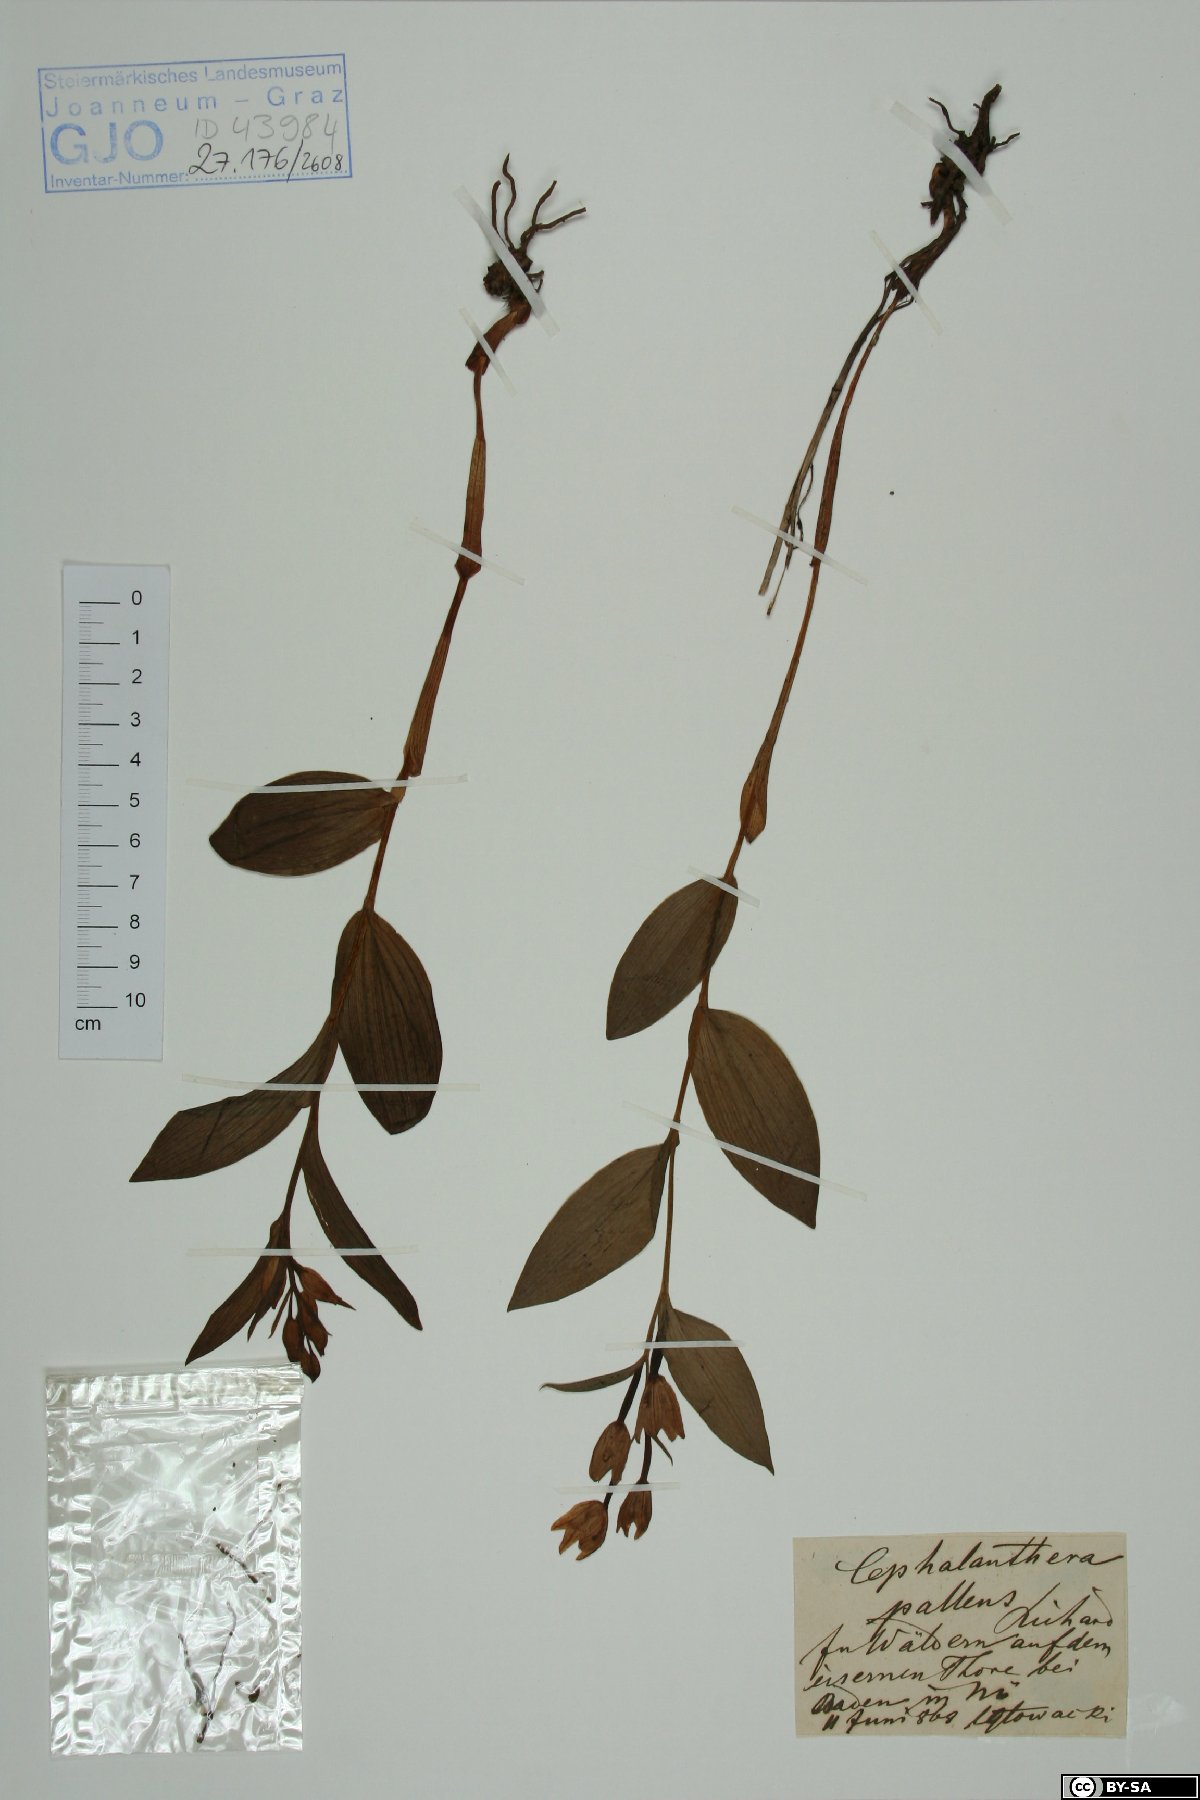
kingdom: Plantae
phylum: Tracheophyta
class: Liliopsida
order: Asparagales
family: Orchidaceae
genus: Cephalanthera
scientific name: Cephalanthera longifolia
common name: Narrow-leaved helleborine
